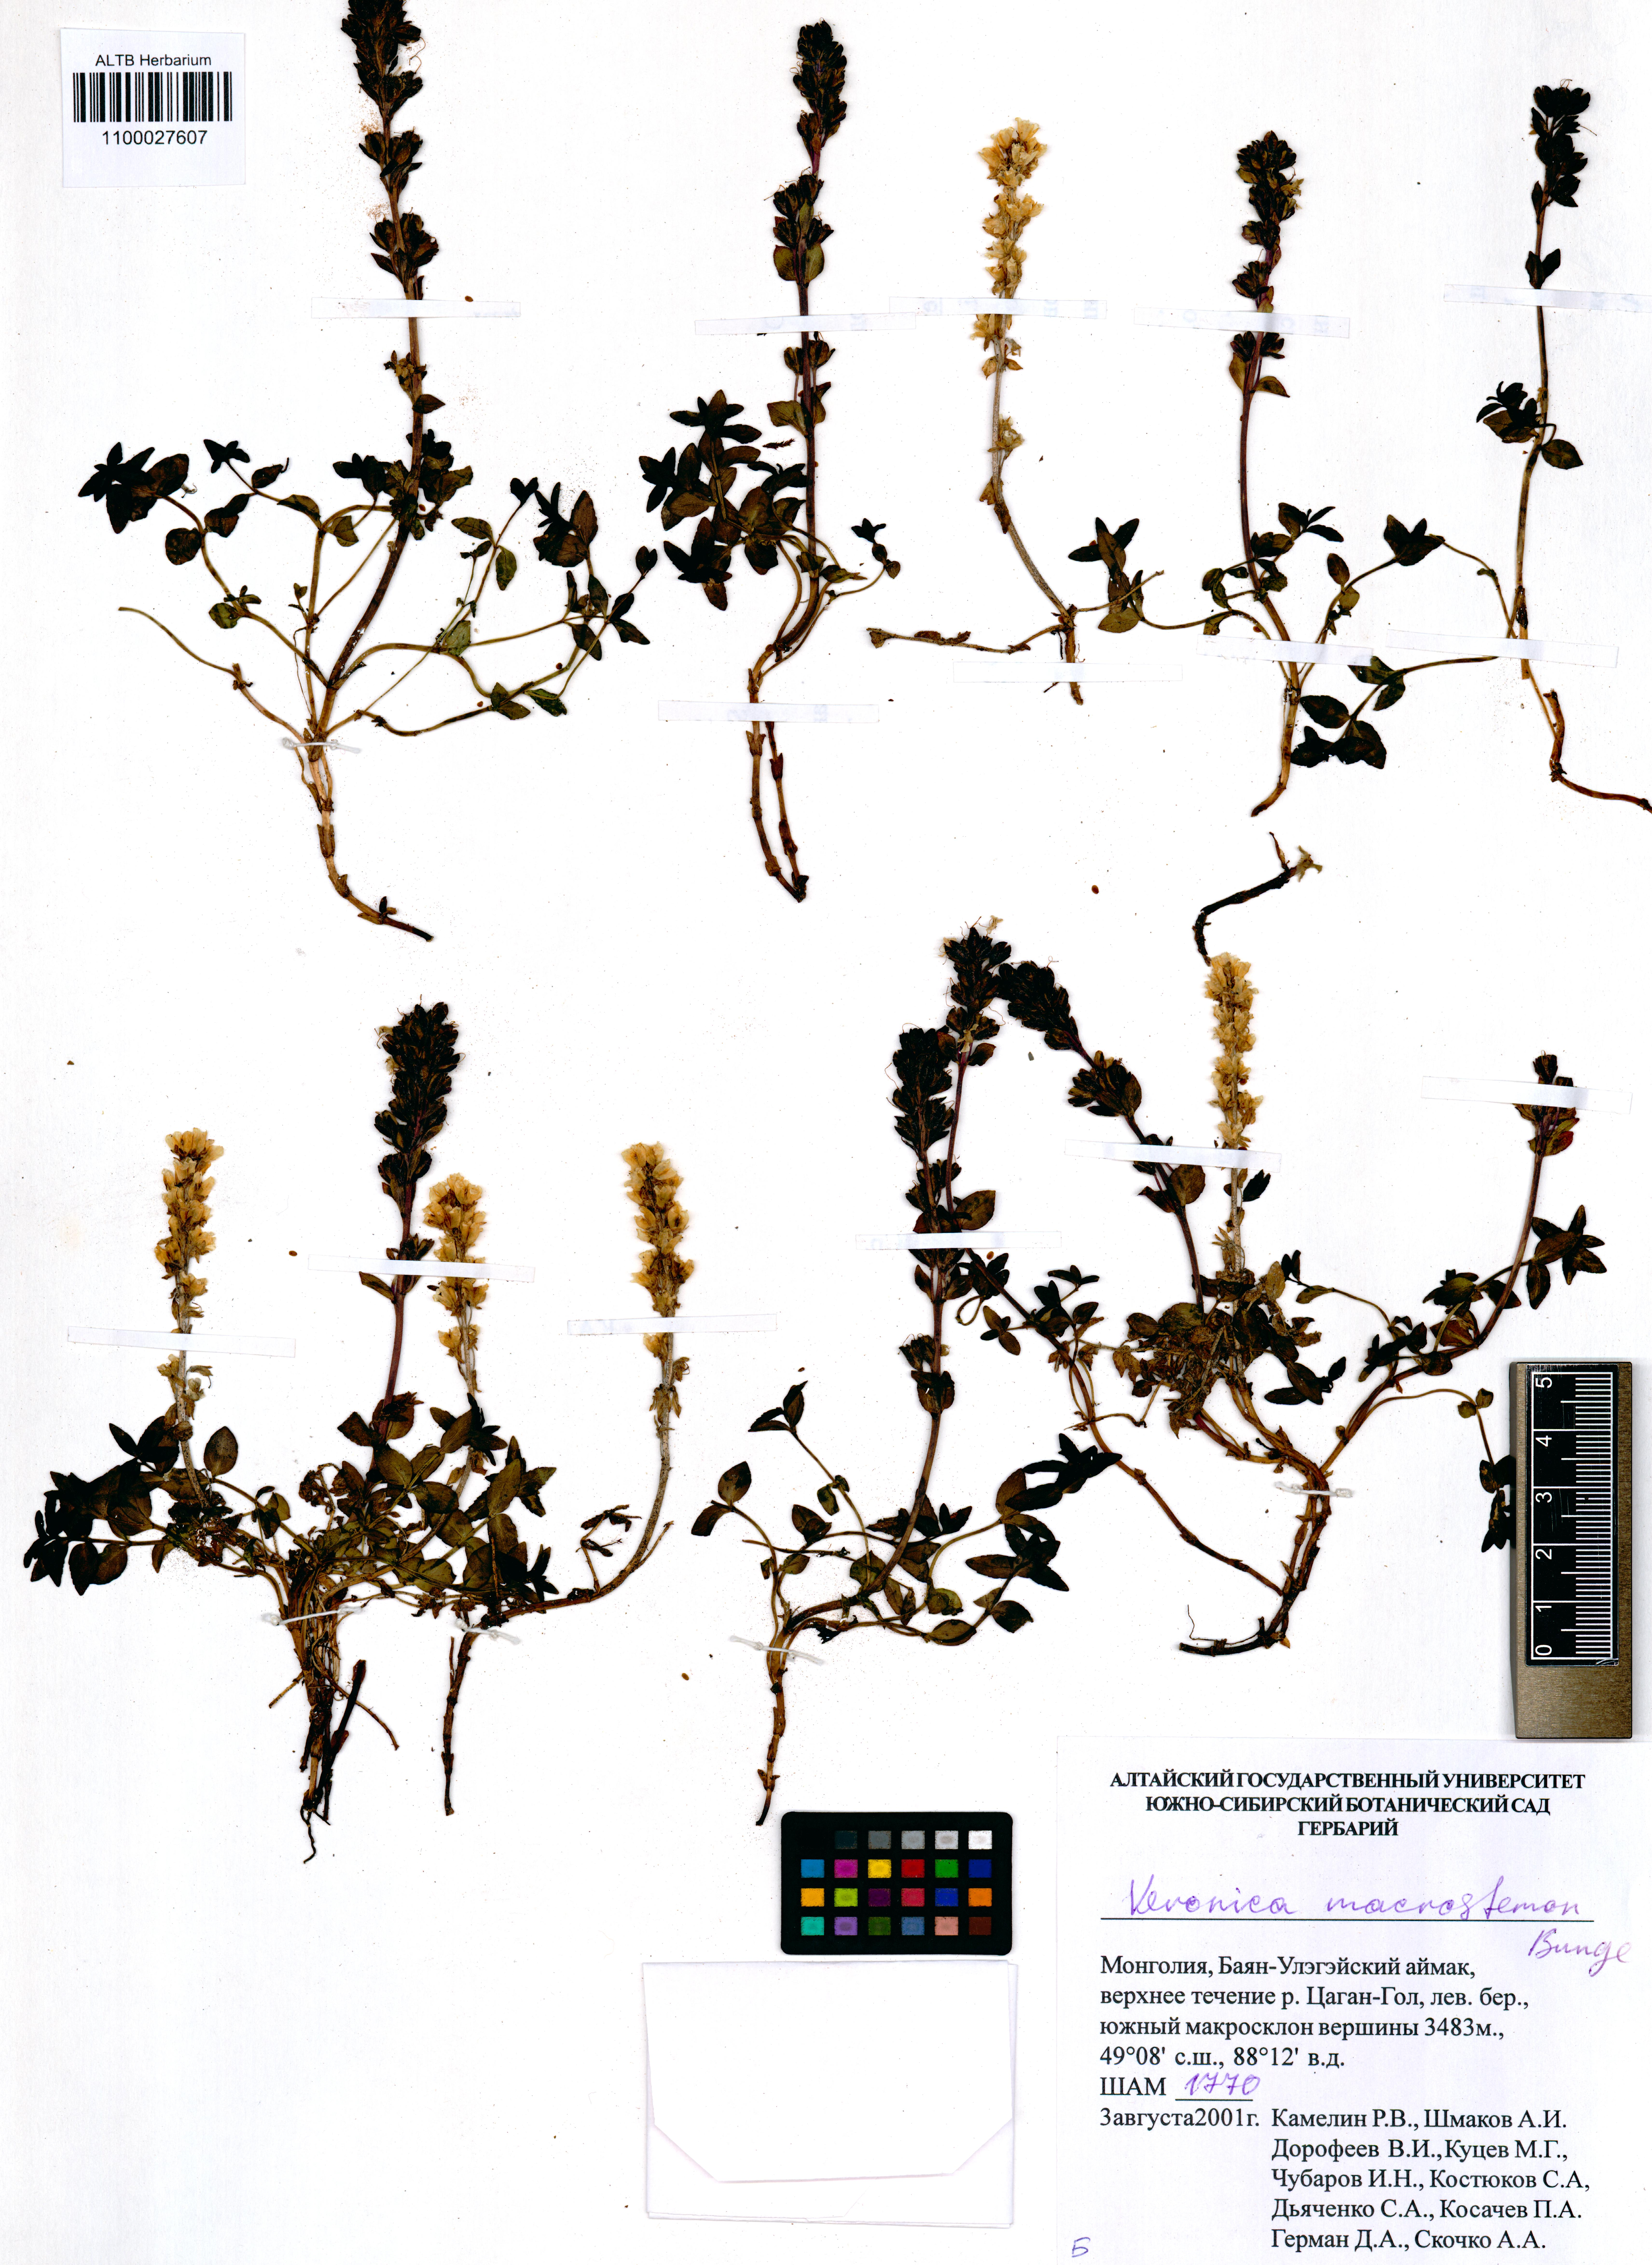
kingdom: Plantae
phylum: Tracheophyta
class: Magnoliopsida
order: Lamiales
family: Plantaginaceae
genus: Veronica
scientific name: Veronica macrostemon
